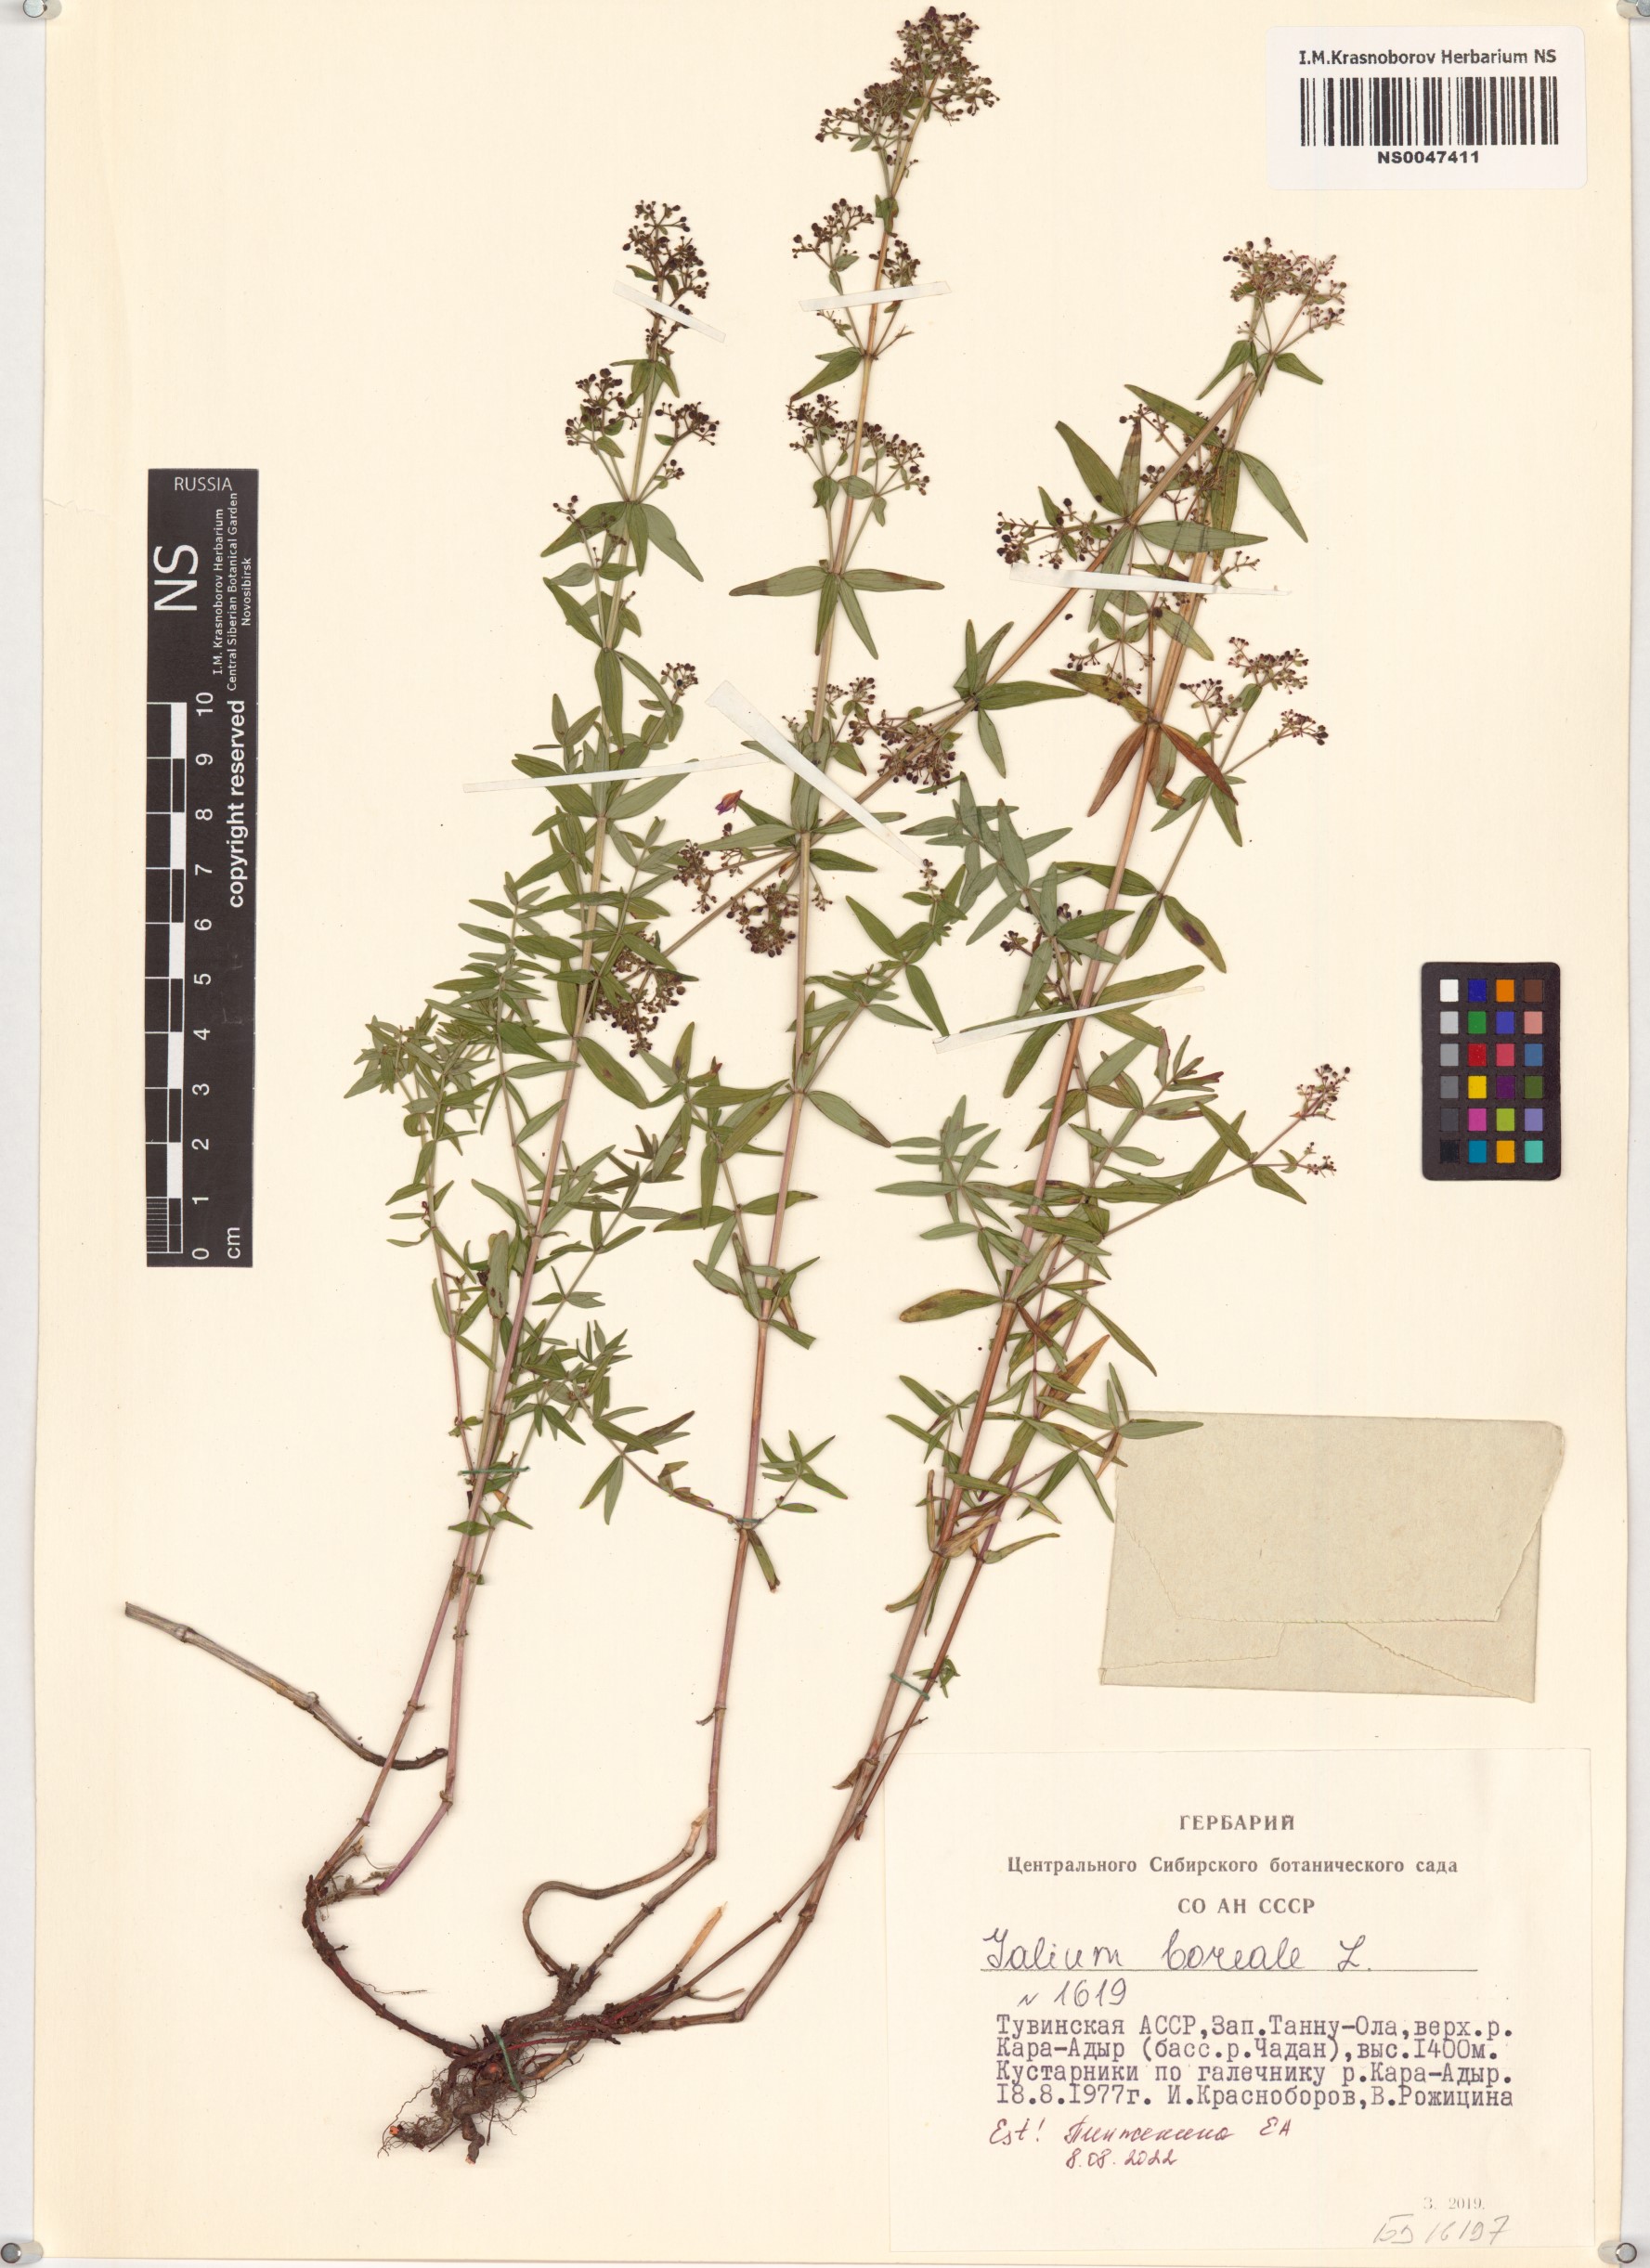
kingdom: Plantae
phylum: Tracheophyta
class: Magnoliopsida
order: Gentianales
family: Rubiaceae
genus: Galium
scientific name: Galium boreale
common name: Northern bedstraw
